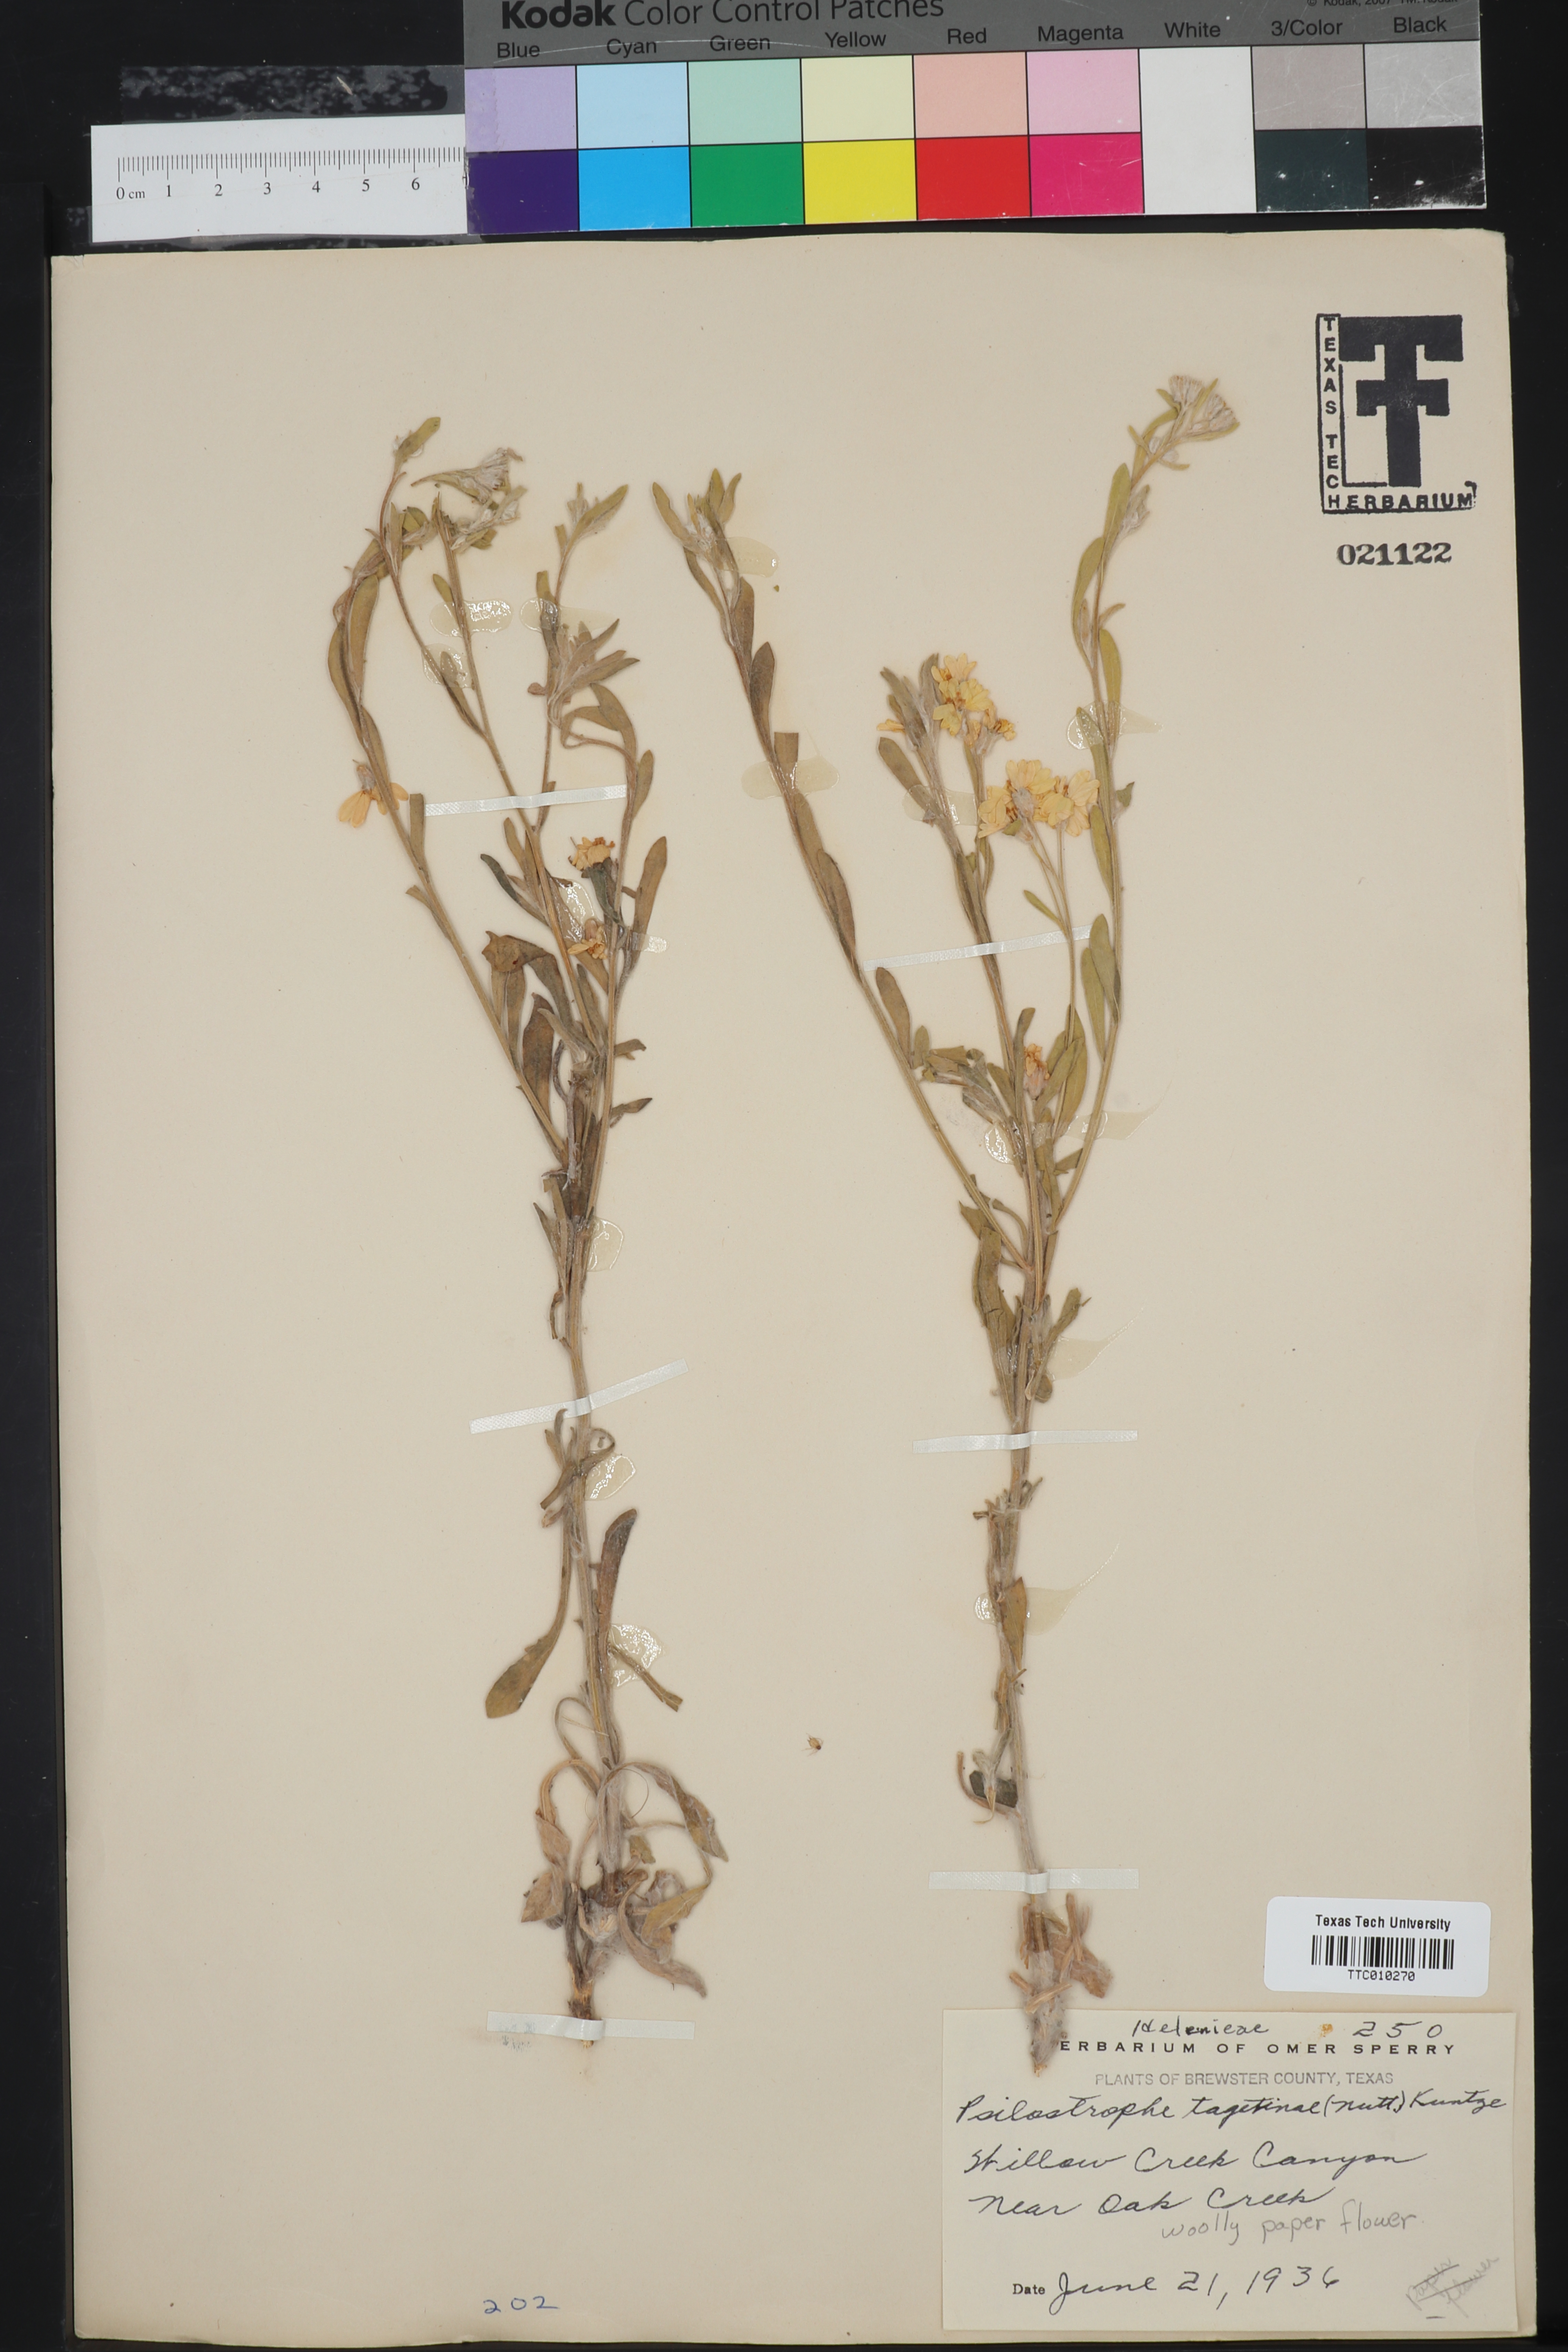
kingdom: Plantae
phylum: Tracheophyta
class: Magnoliopsida
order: Asterales
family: Asteraceae
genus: Psilostrophe
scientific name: Psilostrophe tagetina
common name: Marigold paper-flower
